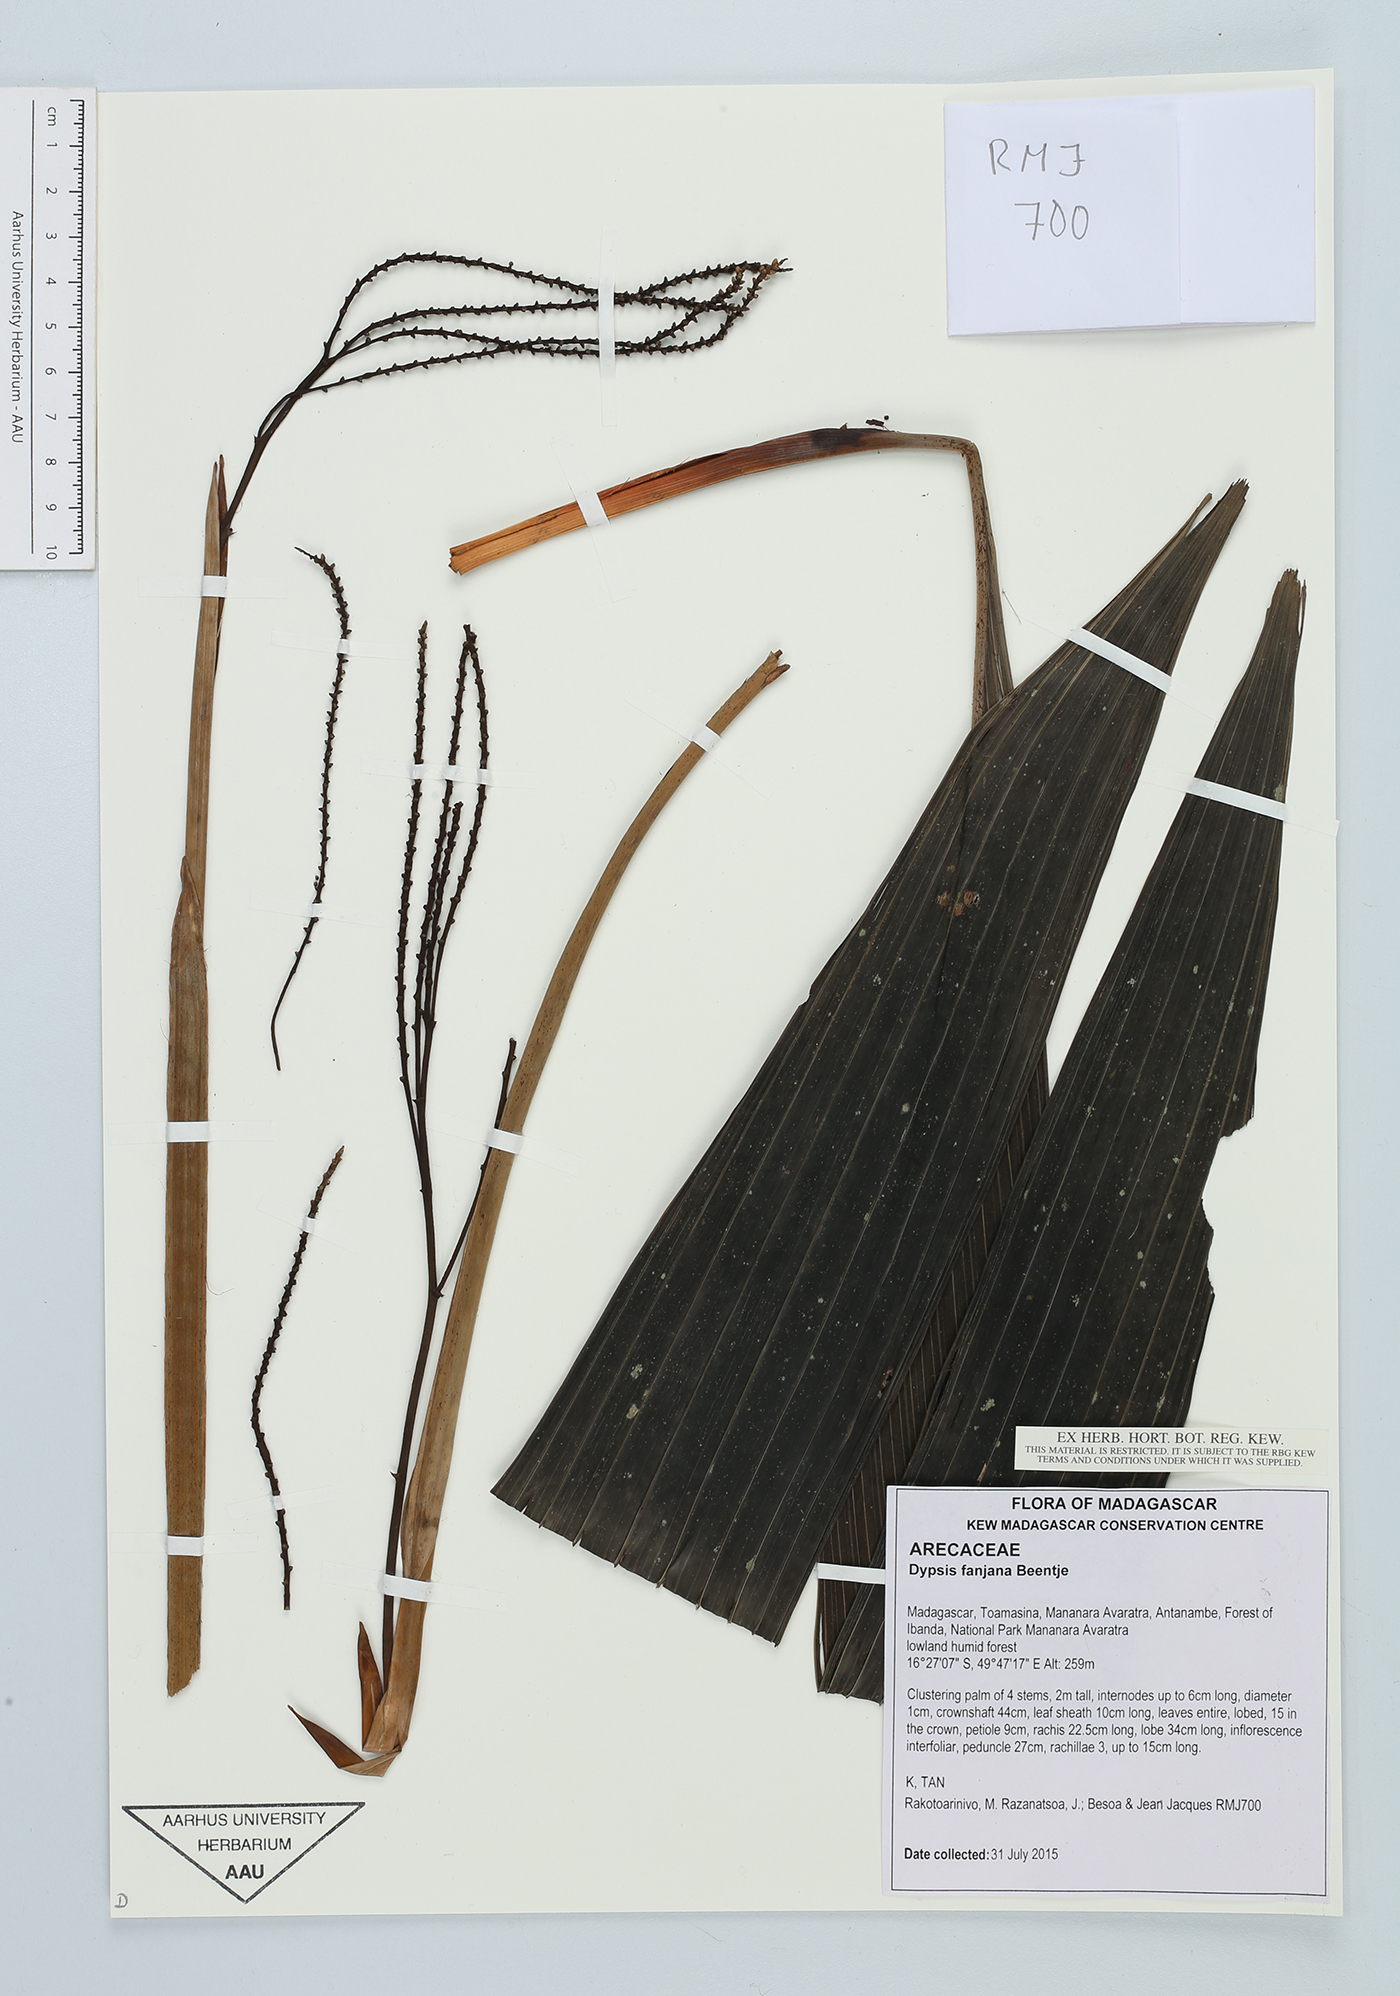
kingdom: Plantae
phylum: Tracheophyta
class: Liliopsida
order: Arecales
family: Arecaceae
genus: Dypsis
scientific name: Dypsis fanjana
